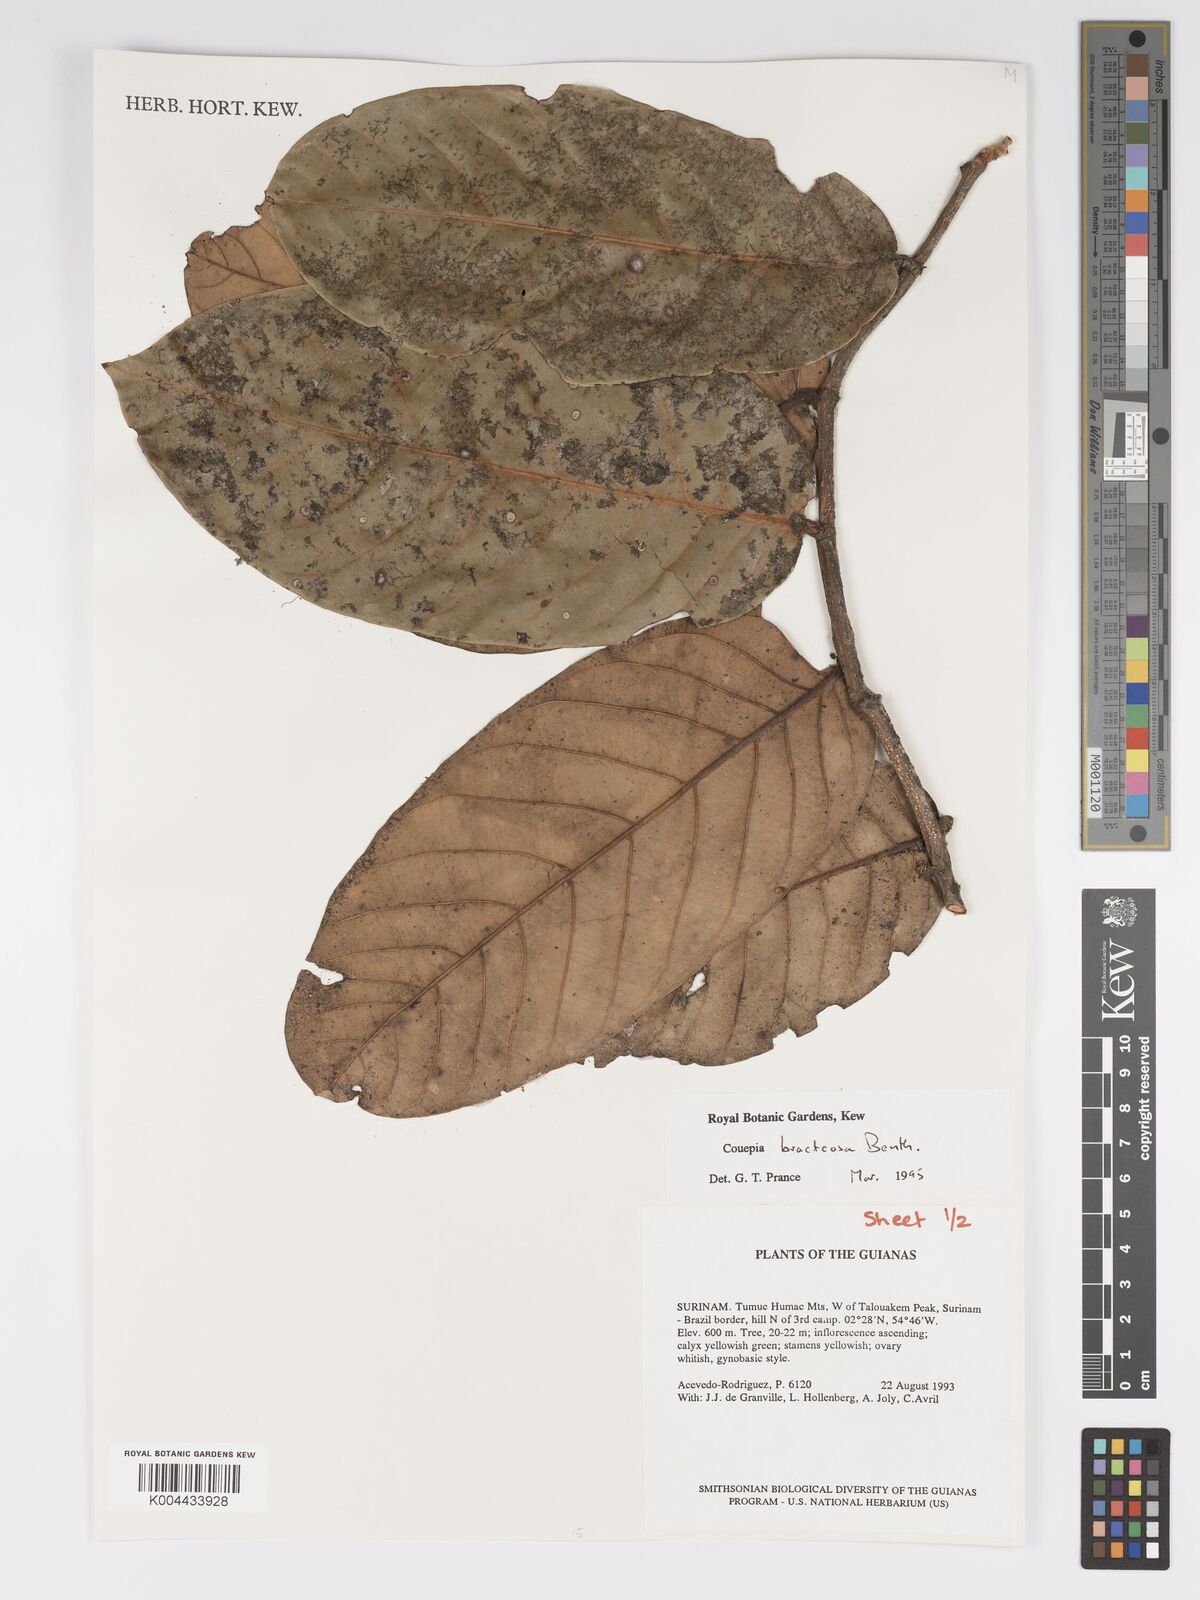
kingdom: Plantae
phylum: Tracheophyta
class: Magnoliopsida
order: Malpighiales
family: Chrysobalanaceae
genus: Couepia
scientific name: Couepia bracteosa
